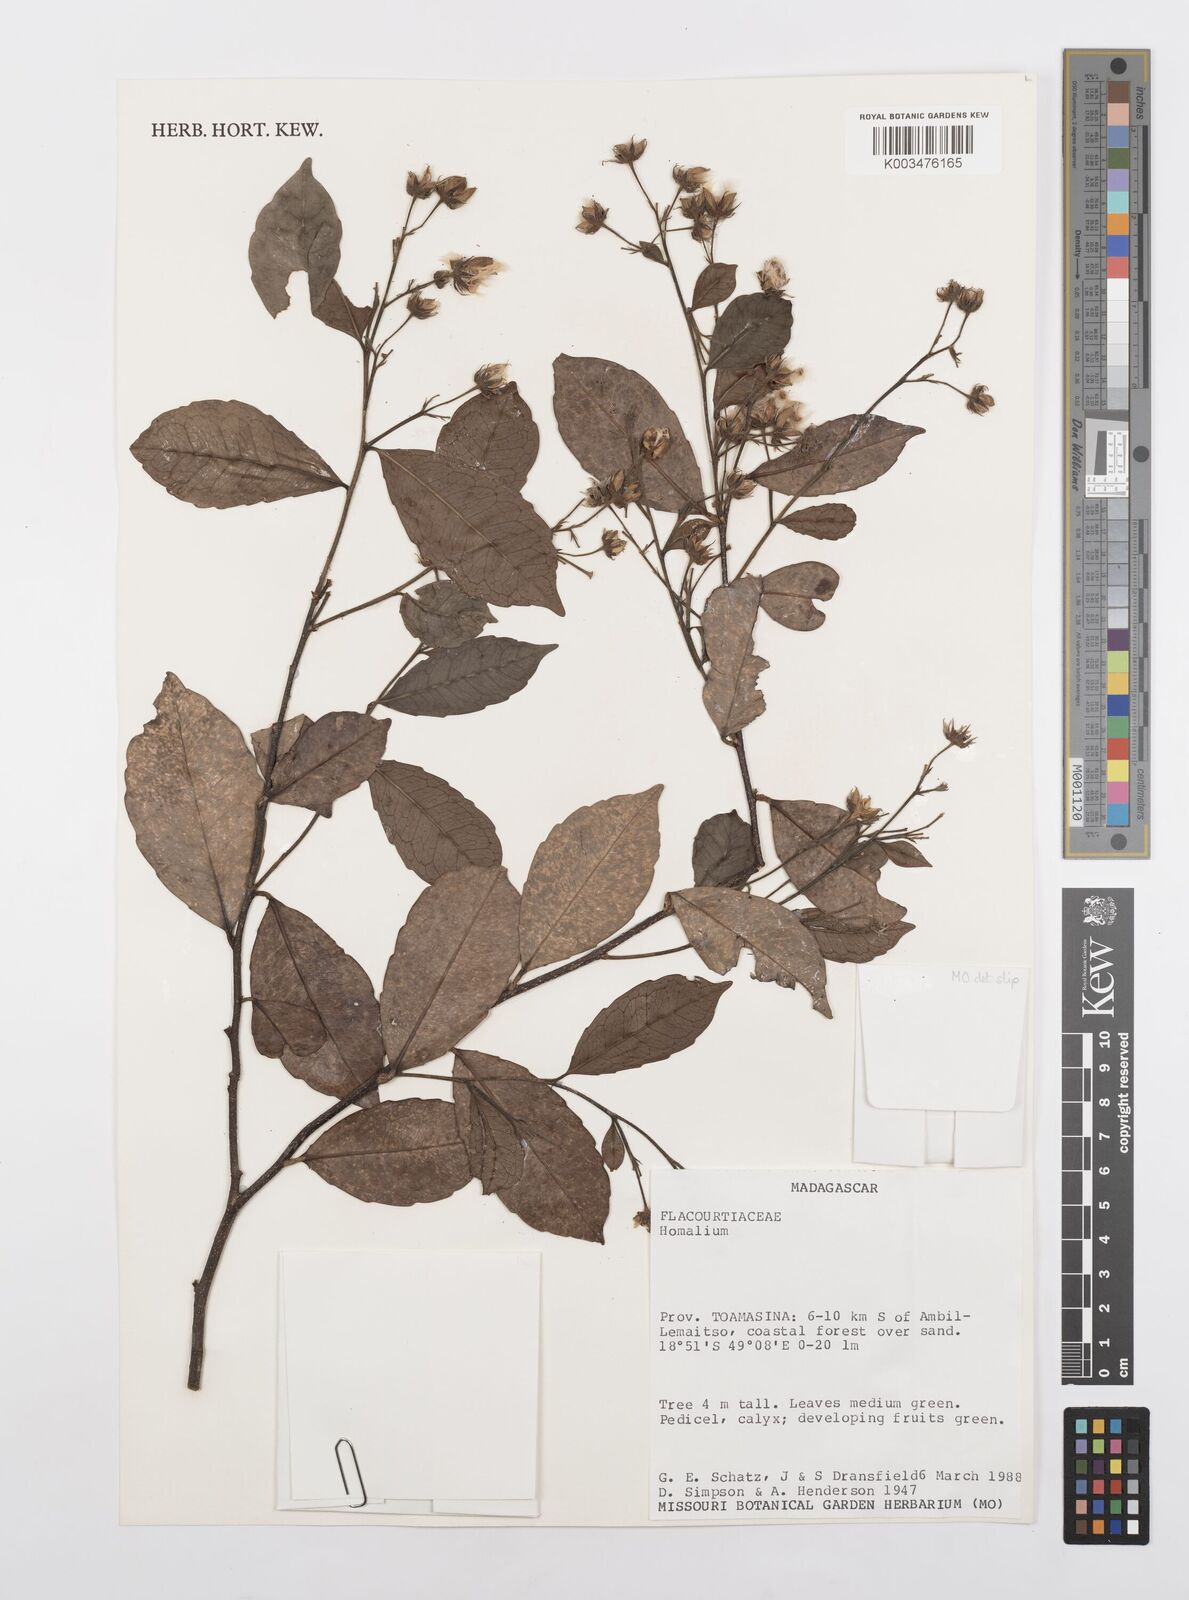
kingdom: Plantae
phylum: Tracheophyta
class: Magnoliopsida
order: Malpighiales
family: Salicaceae
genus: Homalium
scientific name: Homalium
